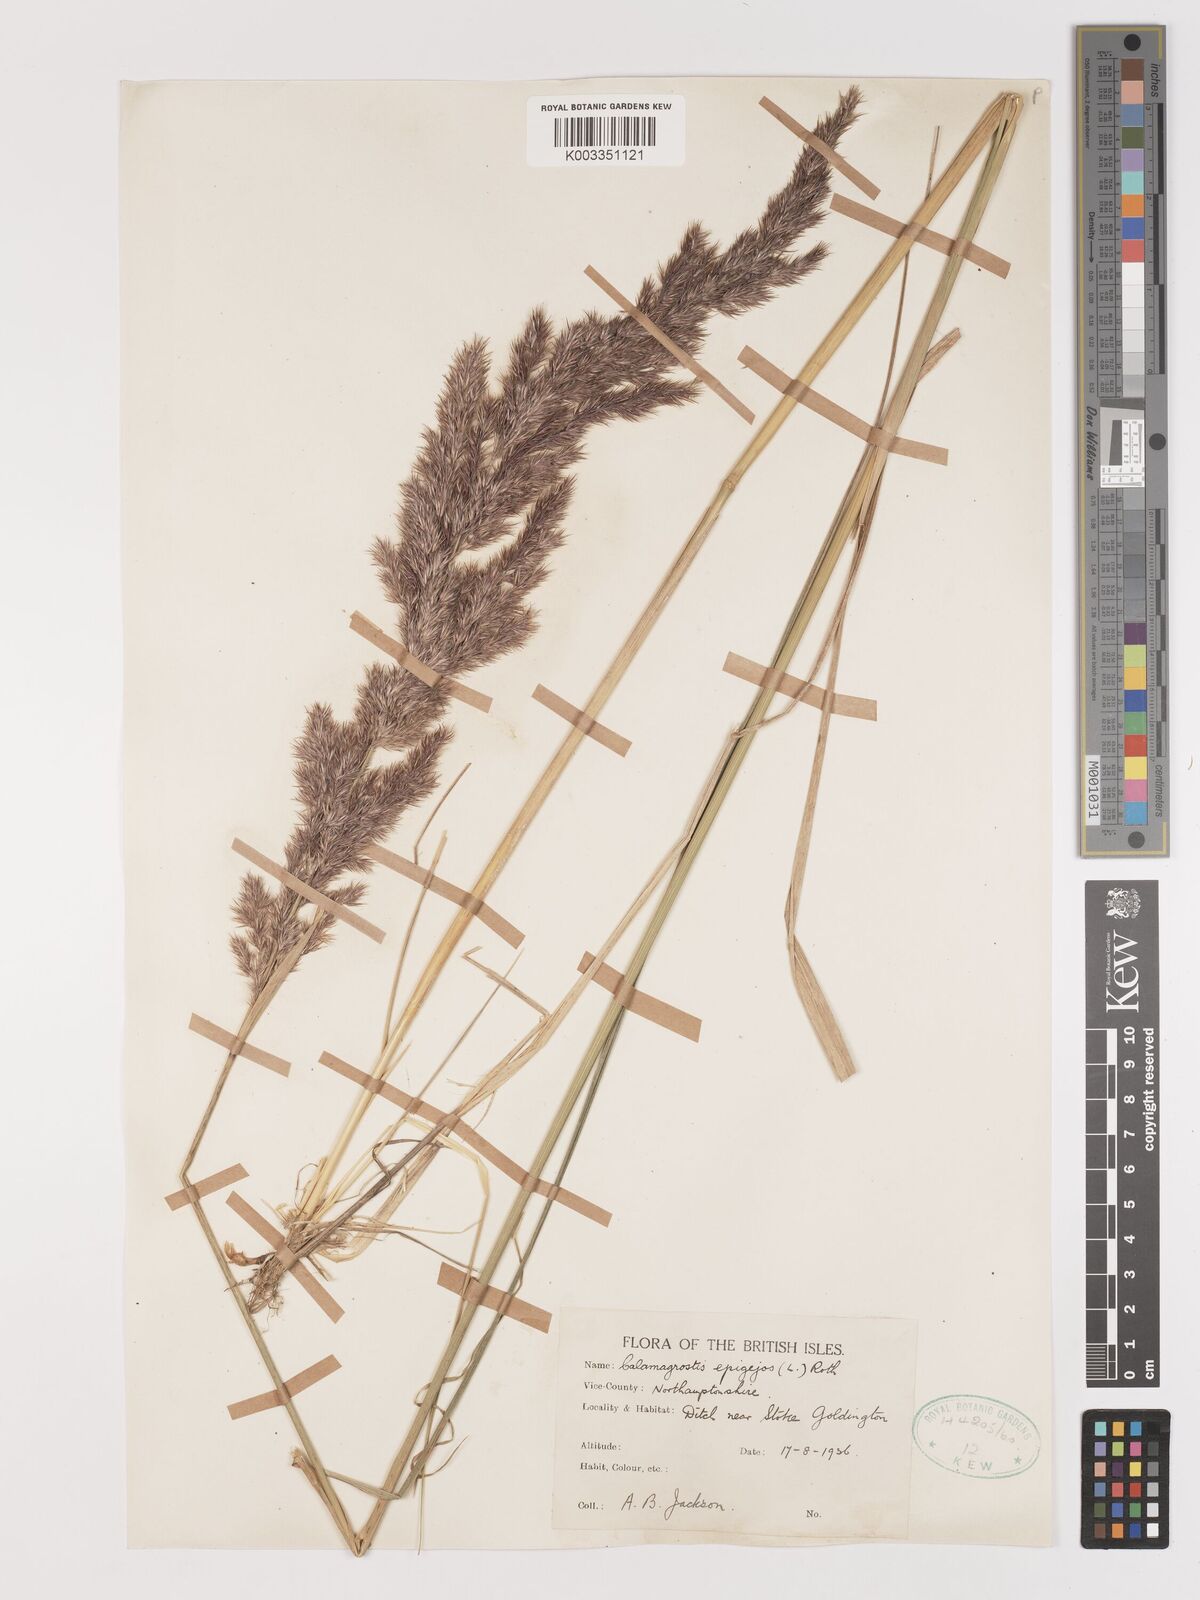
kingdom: Plantae
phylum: Tracheophyta
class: Liliopsida
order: Poales
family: Poaceae
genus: Calamagrostis
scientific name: Calamagrostis
